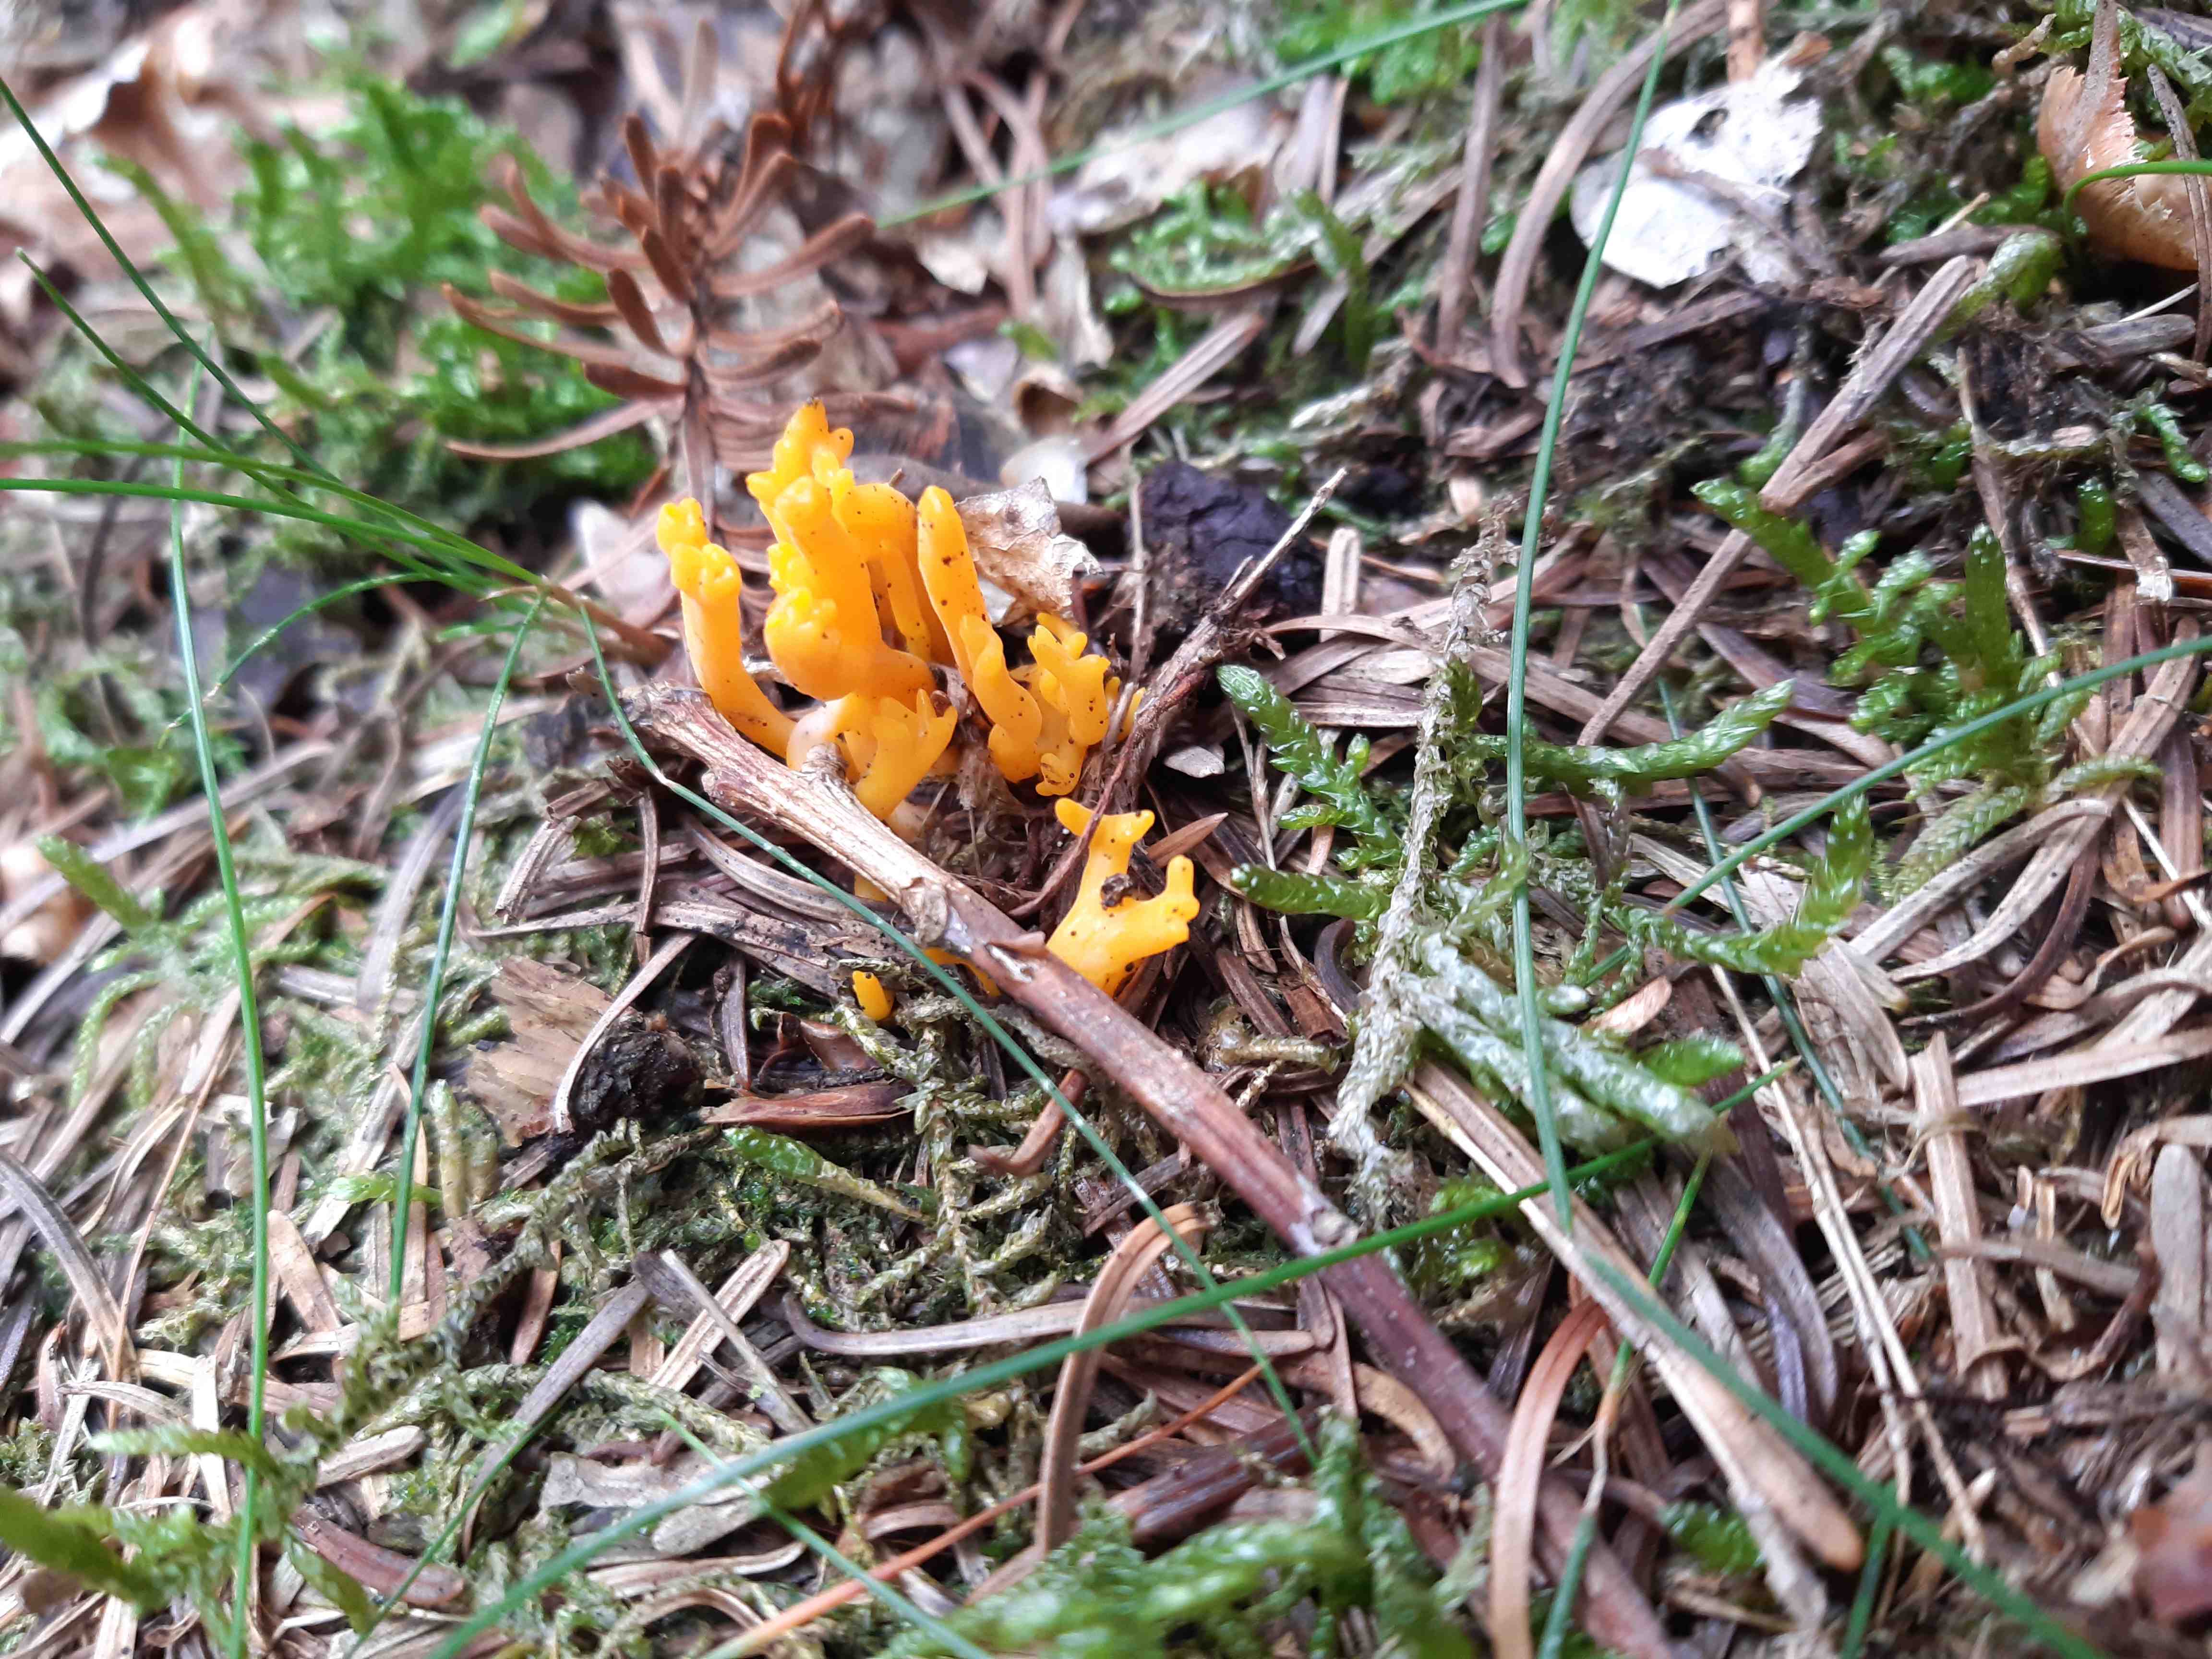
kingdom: Fungi
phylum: Basidiomycota
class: Dacrymycetes
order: Dacrymycetales
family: Dacrymycetaceae
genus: Calocera
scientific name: Calocera viscosa
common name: almindelig guldgaffel
